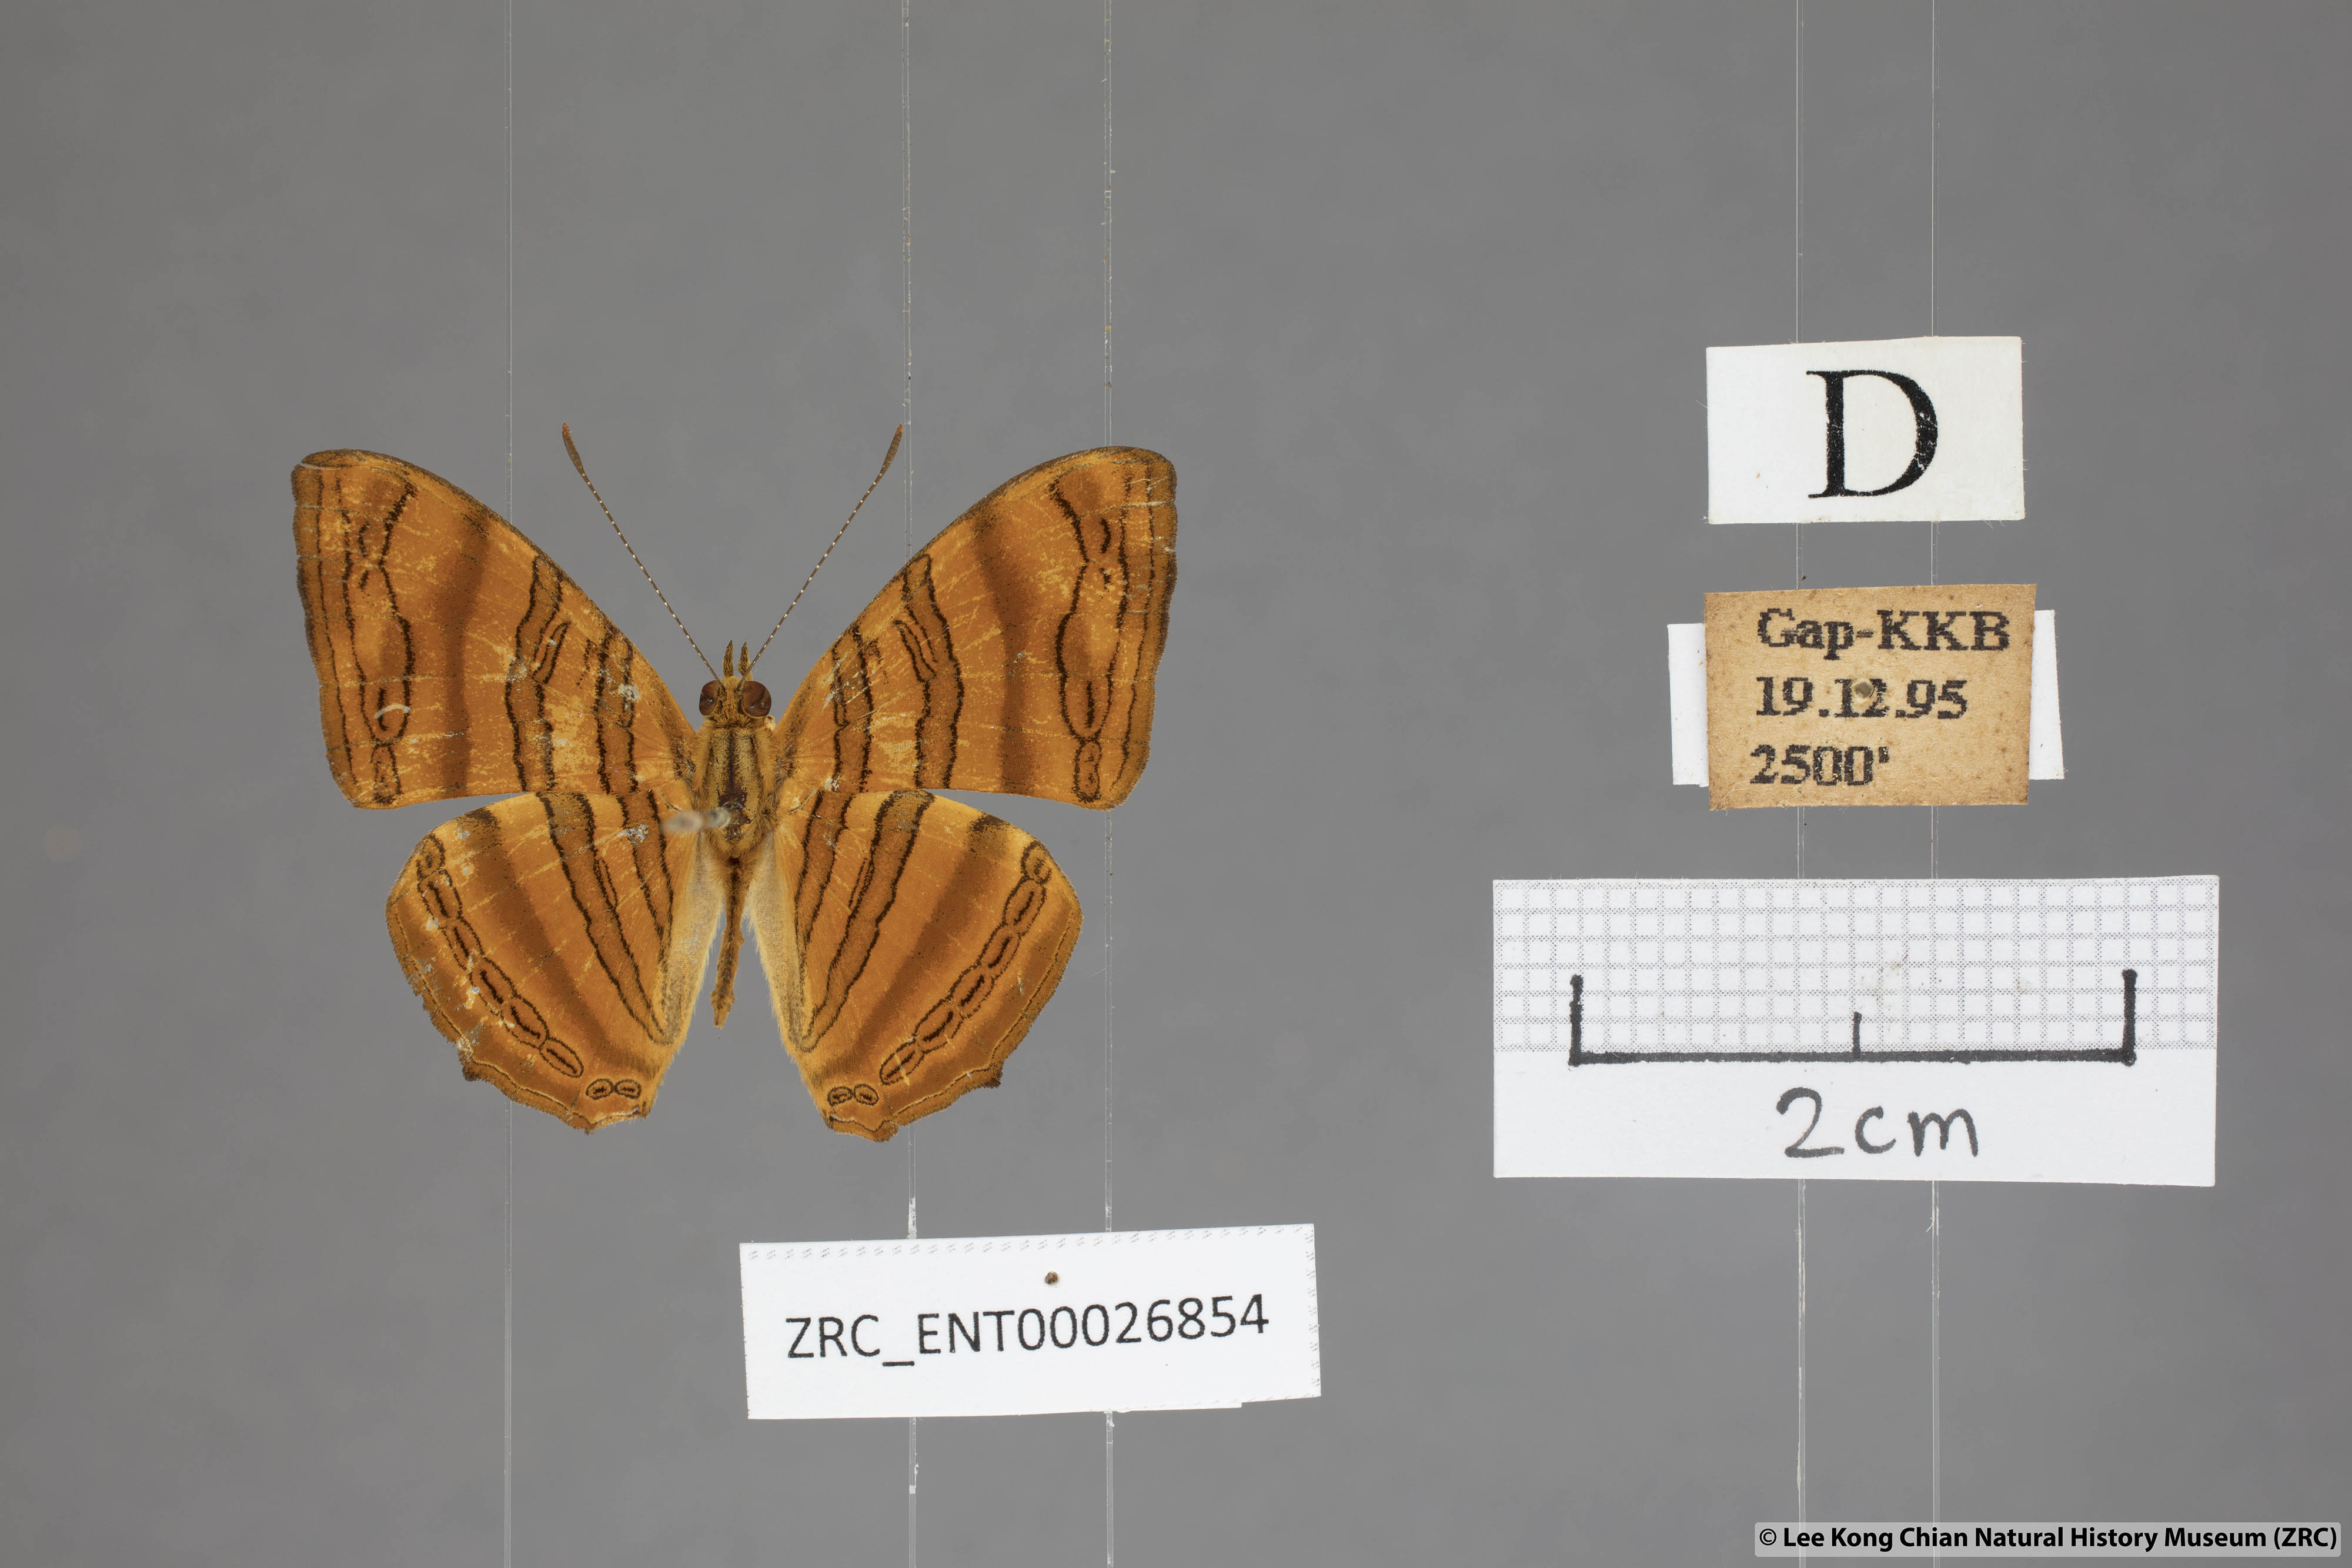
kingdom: Animalia
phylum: Arthropoda
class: Insecta
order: Lepidoptera
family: Nymphalidae
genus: Chersonesia
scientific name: Chersonesia rahria
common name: Wavy maplet
